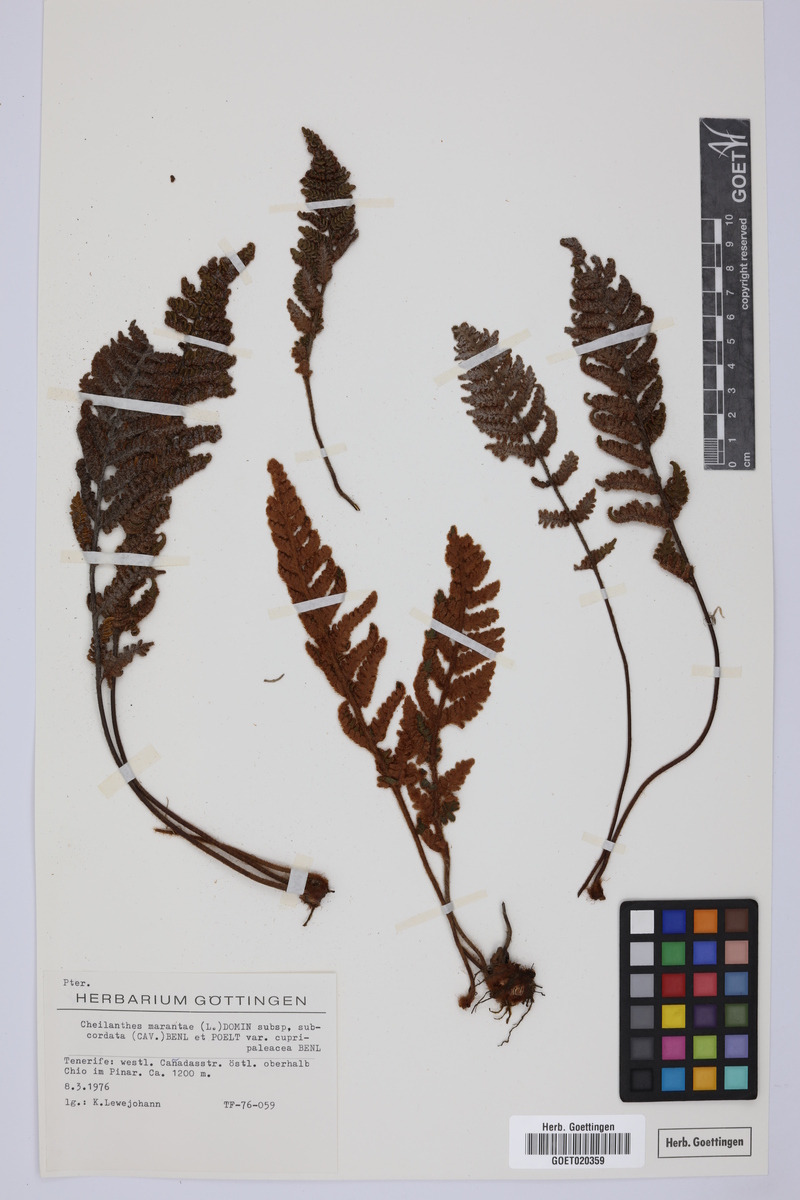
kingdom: Plantae
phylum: Tracheophyta
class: Polypodiopsida
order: Polypodiales
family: Pteridaceae
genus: Paragymnopteris
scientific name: Paragymnopteris marantae
